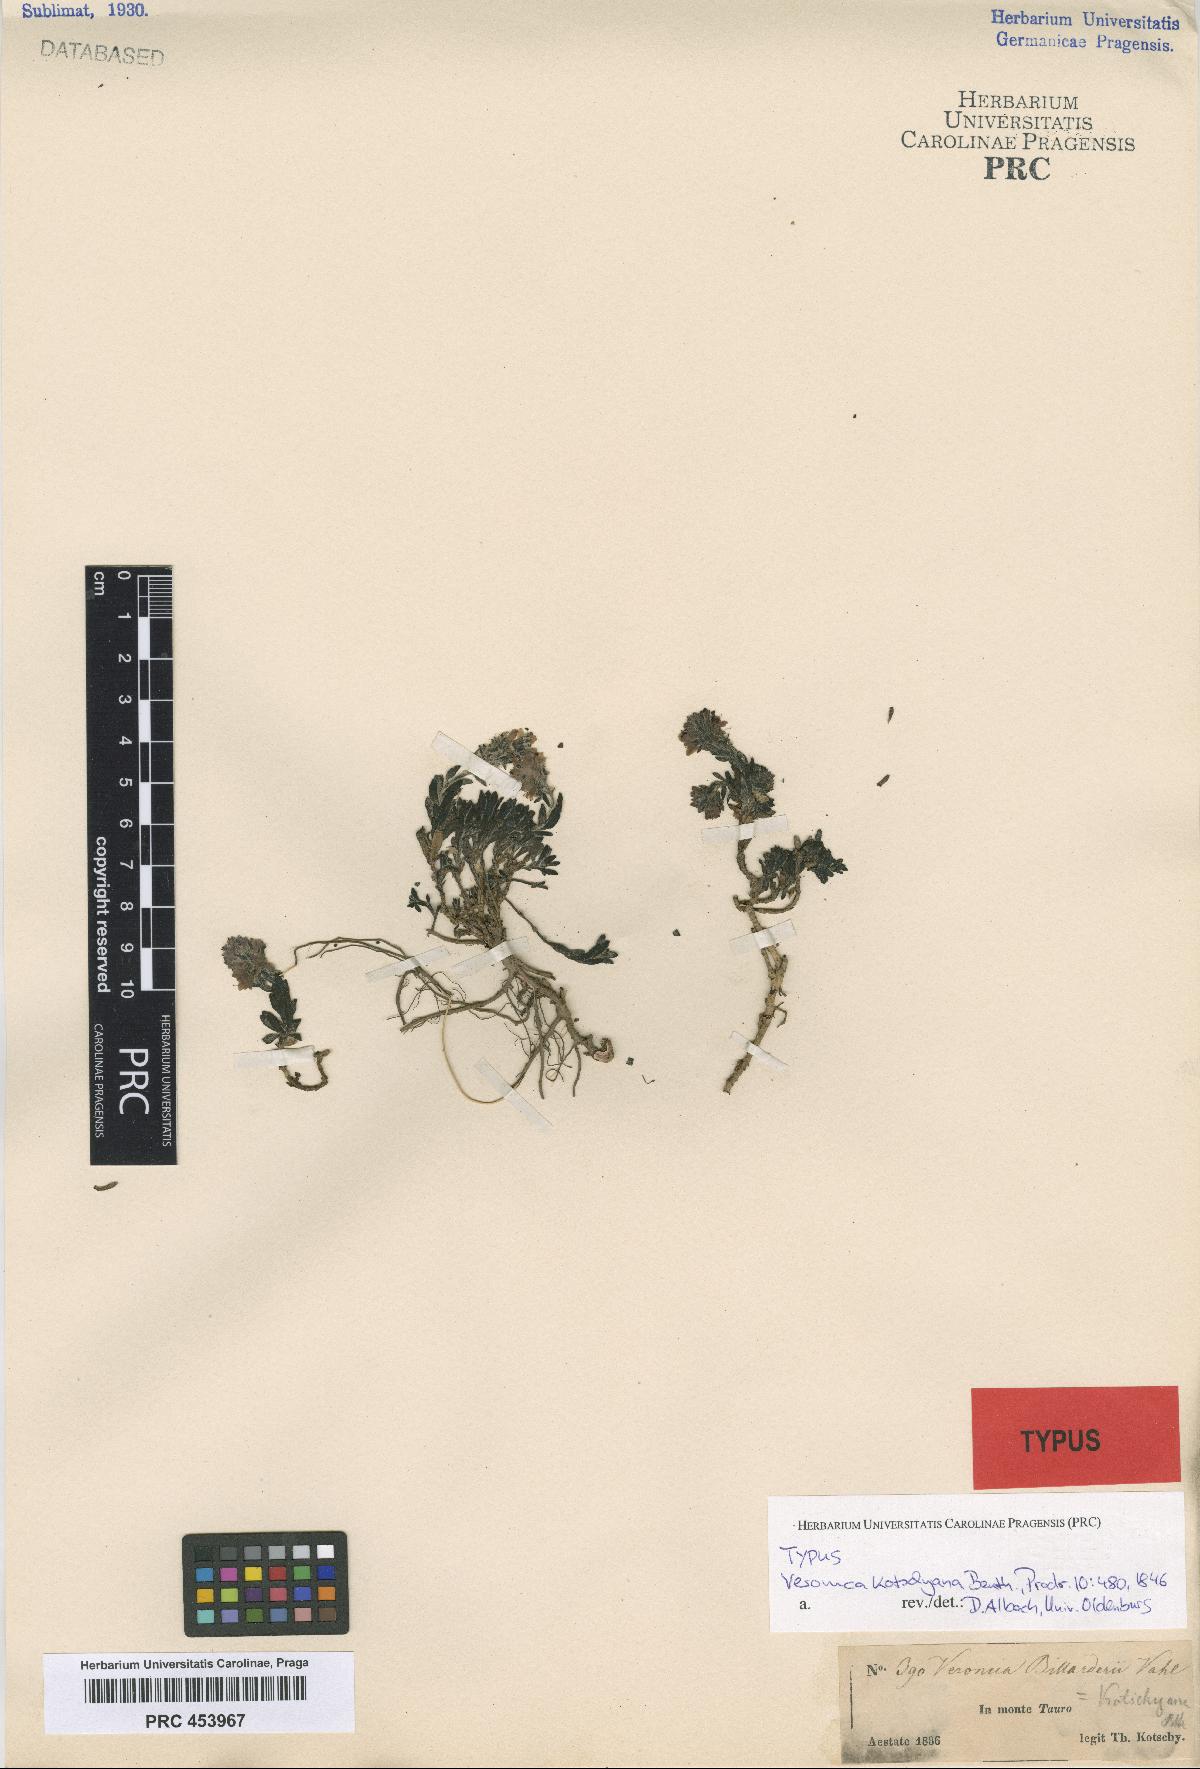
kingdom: Plantae
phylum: Tracheophyta
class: Magnoliopsida
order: Lamiales
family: Plantaginaceae
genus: Veronica
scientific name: Veronica kotschyana
